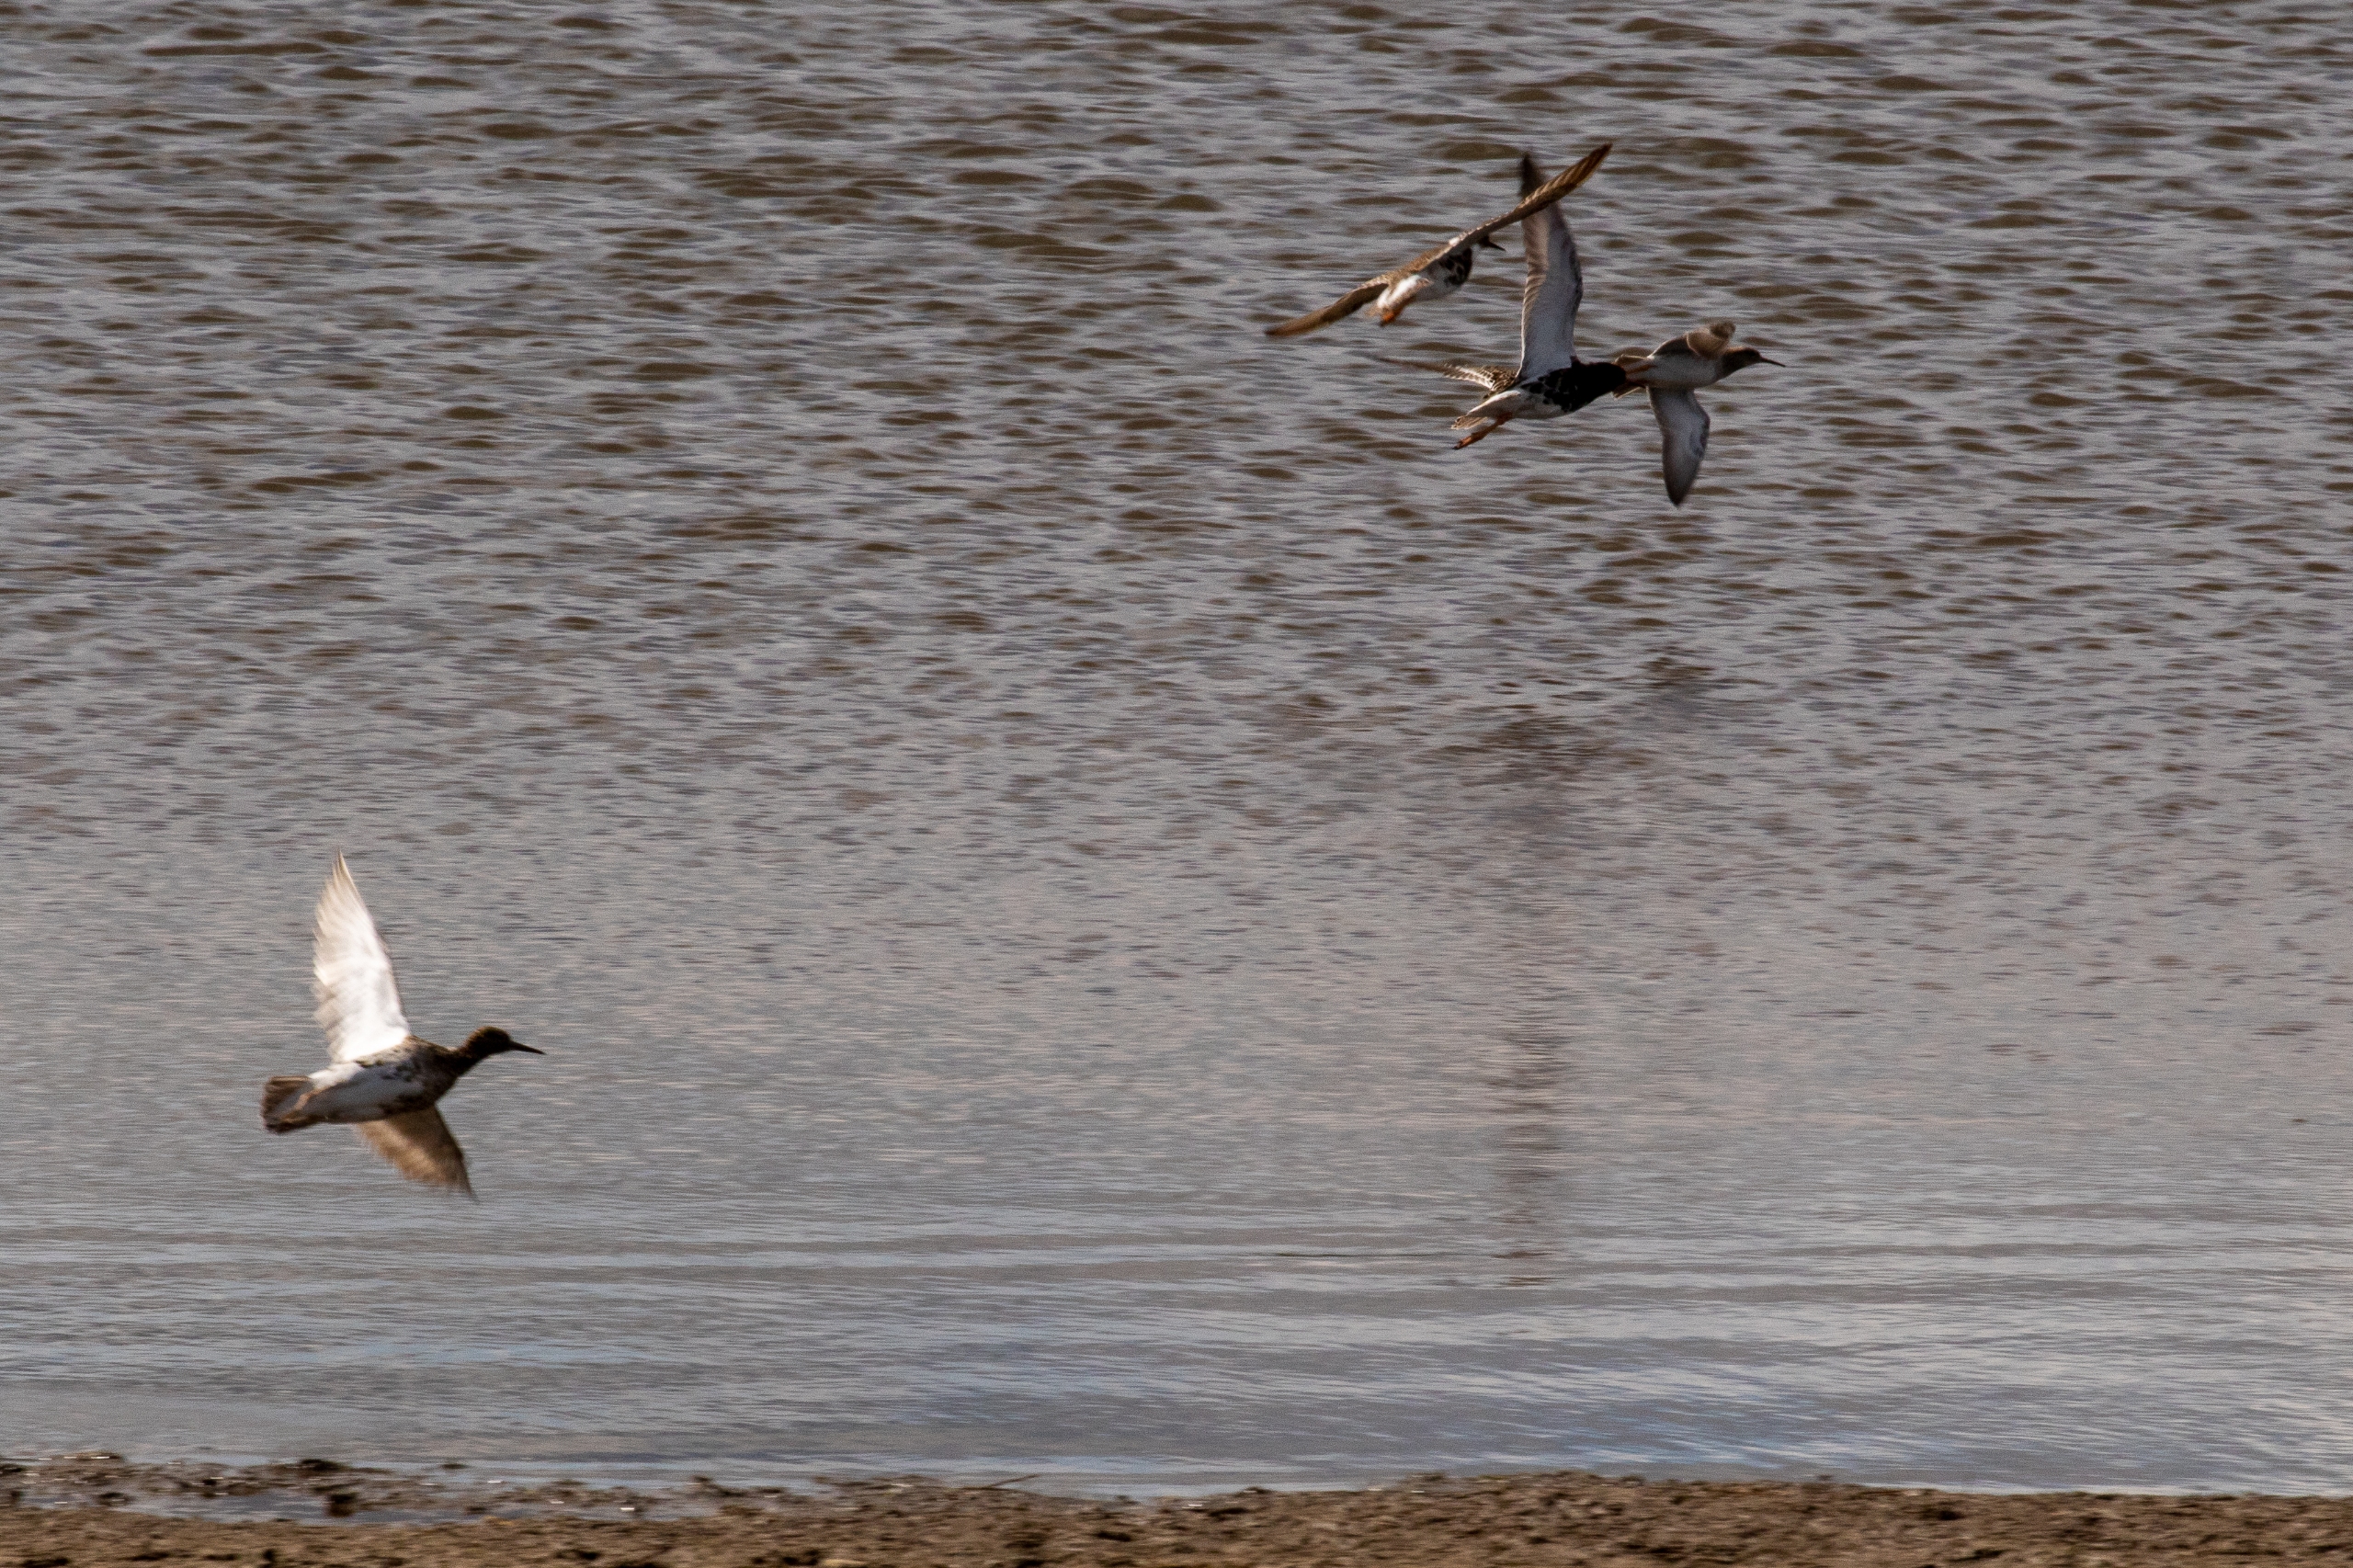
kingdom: Animalia
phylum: Chordata
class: Aves
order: Charadriiformes
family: Scolopacidae
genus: Calidris
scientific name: Calidris pugnax
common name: Brushane
